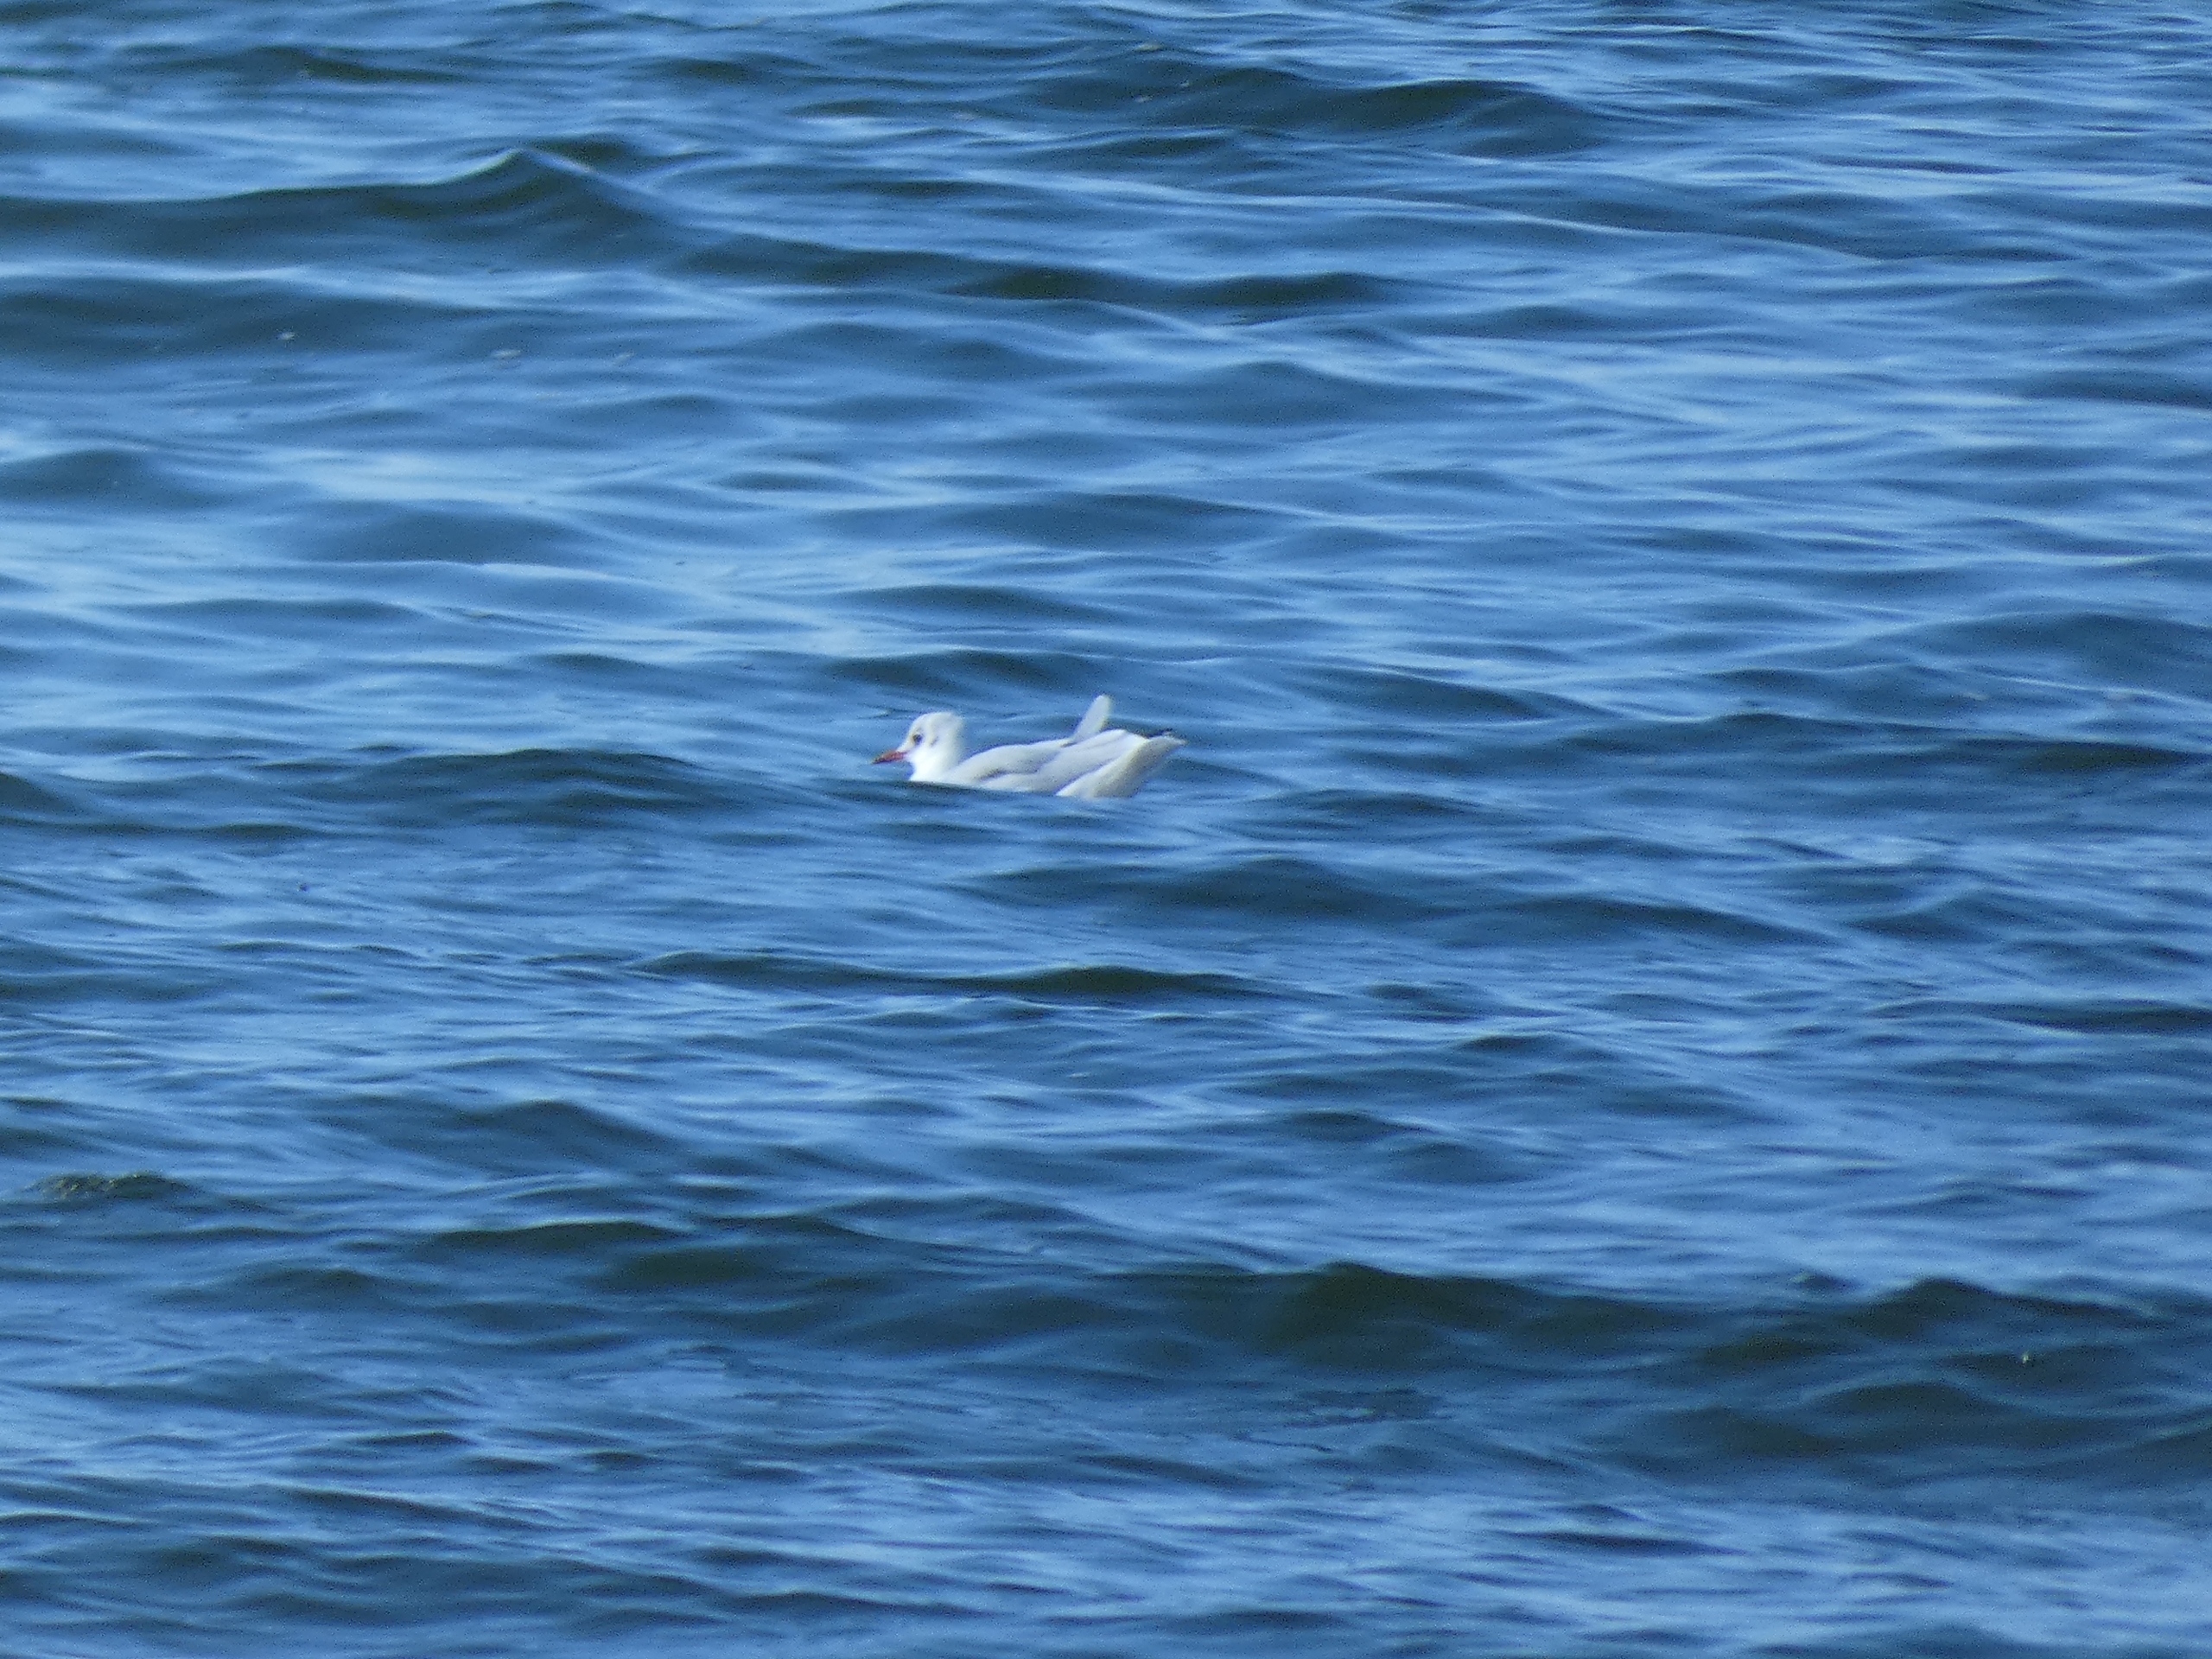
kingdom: Animalia
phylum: Chordata
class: Aves
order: Charadriiformes
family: Laridae
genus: Chroicocephalus
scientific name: Chroicocephalus ridibundus
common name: Hættemåge
